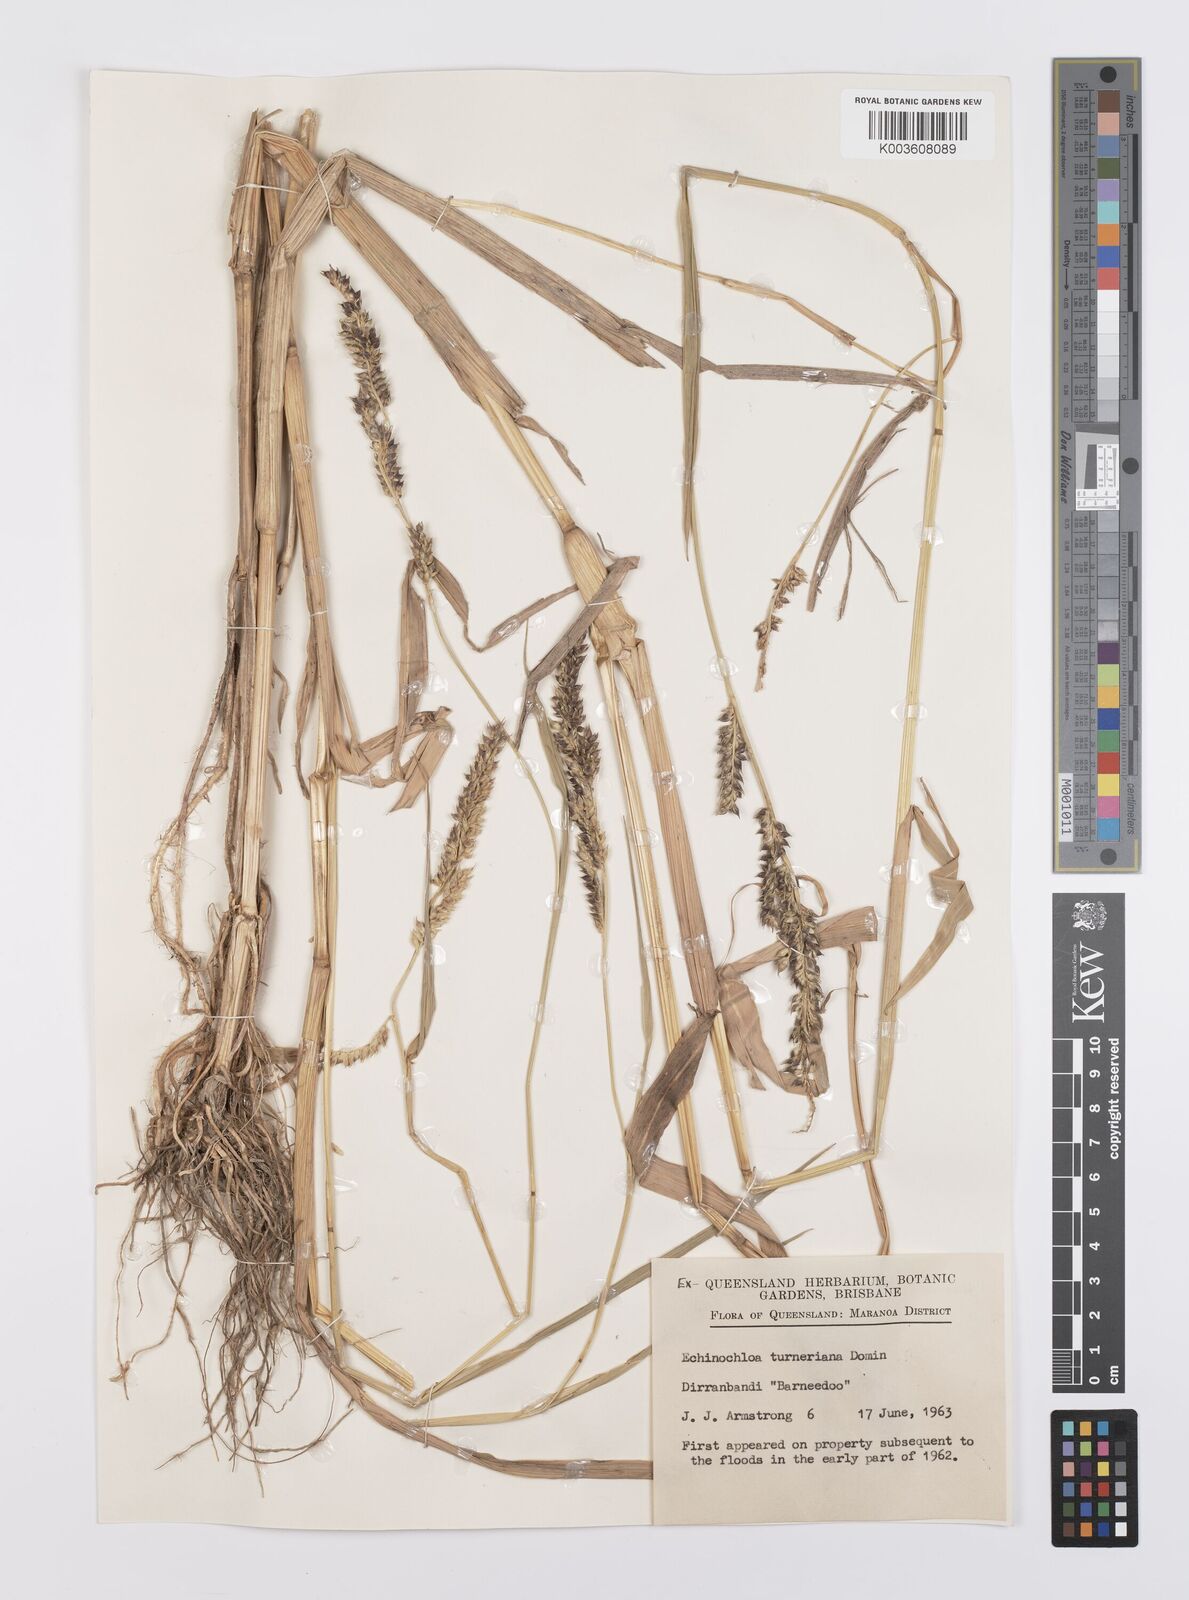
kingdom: Plantae
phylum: Tracheophyta
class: Liliopsida
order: Poales
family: Poaceae
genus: Echinochloa
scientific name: Echinochloa turneriana
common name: Channel millet
